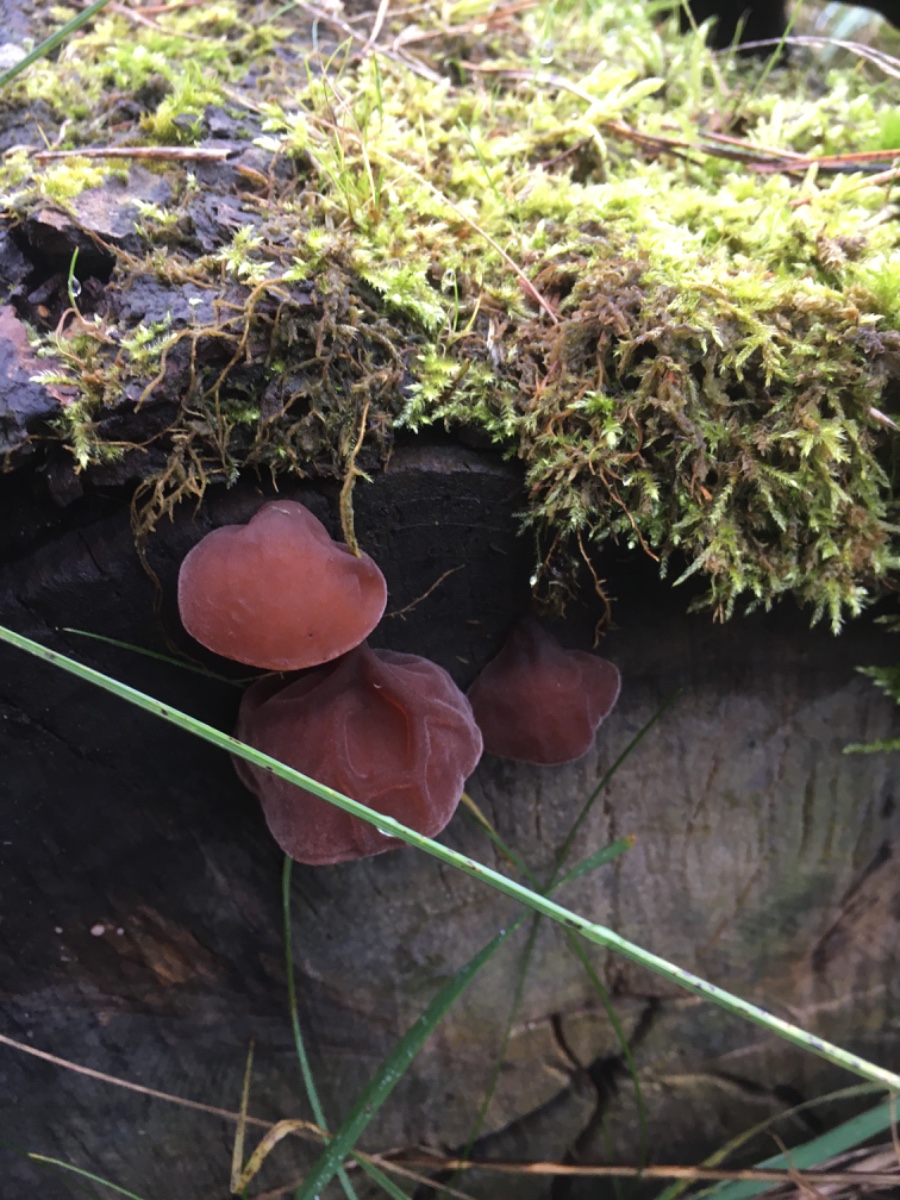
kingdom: Fungi
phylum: Basidiomycota
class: Agaricomycetes
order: Auriculariales
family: Auriculariaceae
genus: Auricularia
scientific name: Auricularia auricula-judae
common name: almindelig judasøre
